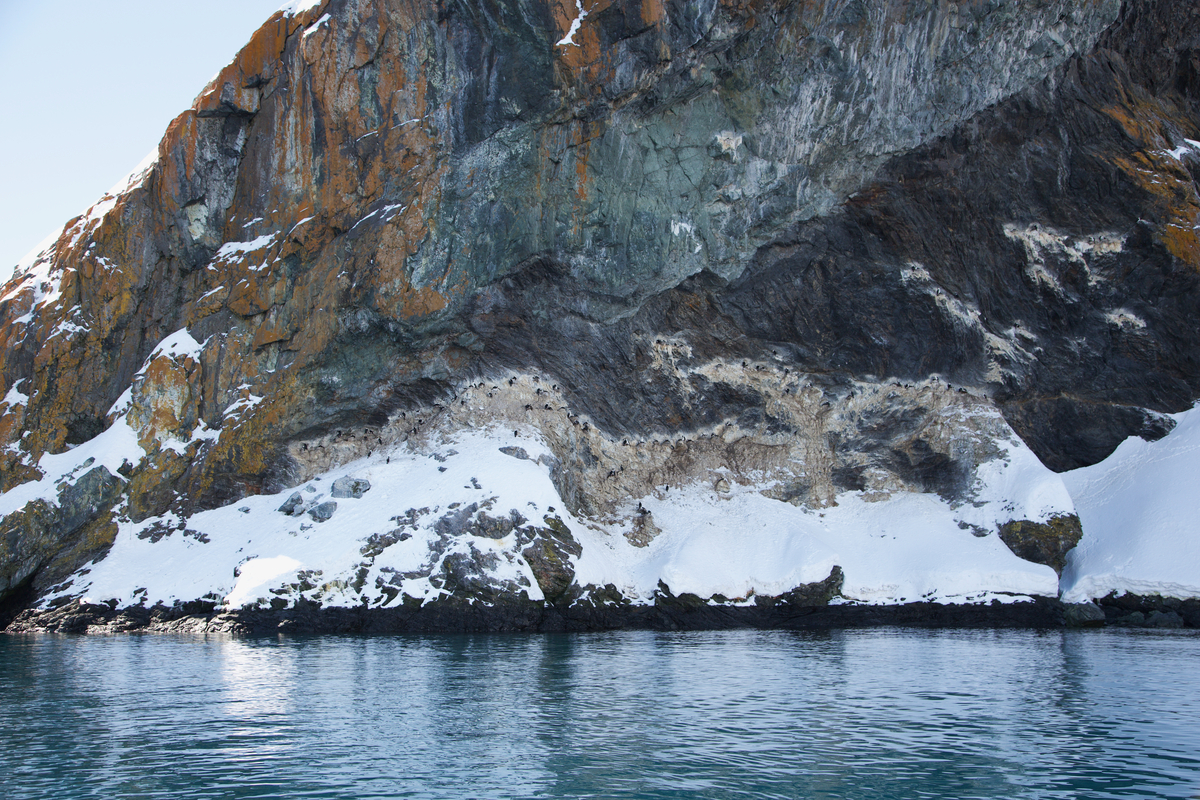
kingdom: Animalia
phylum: Chordata
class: Aves
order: Suliformes
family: Phalacrocoracidae
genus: Leucocarbo
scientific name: Leucocarbo atriceps
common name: Antarctic shag
